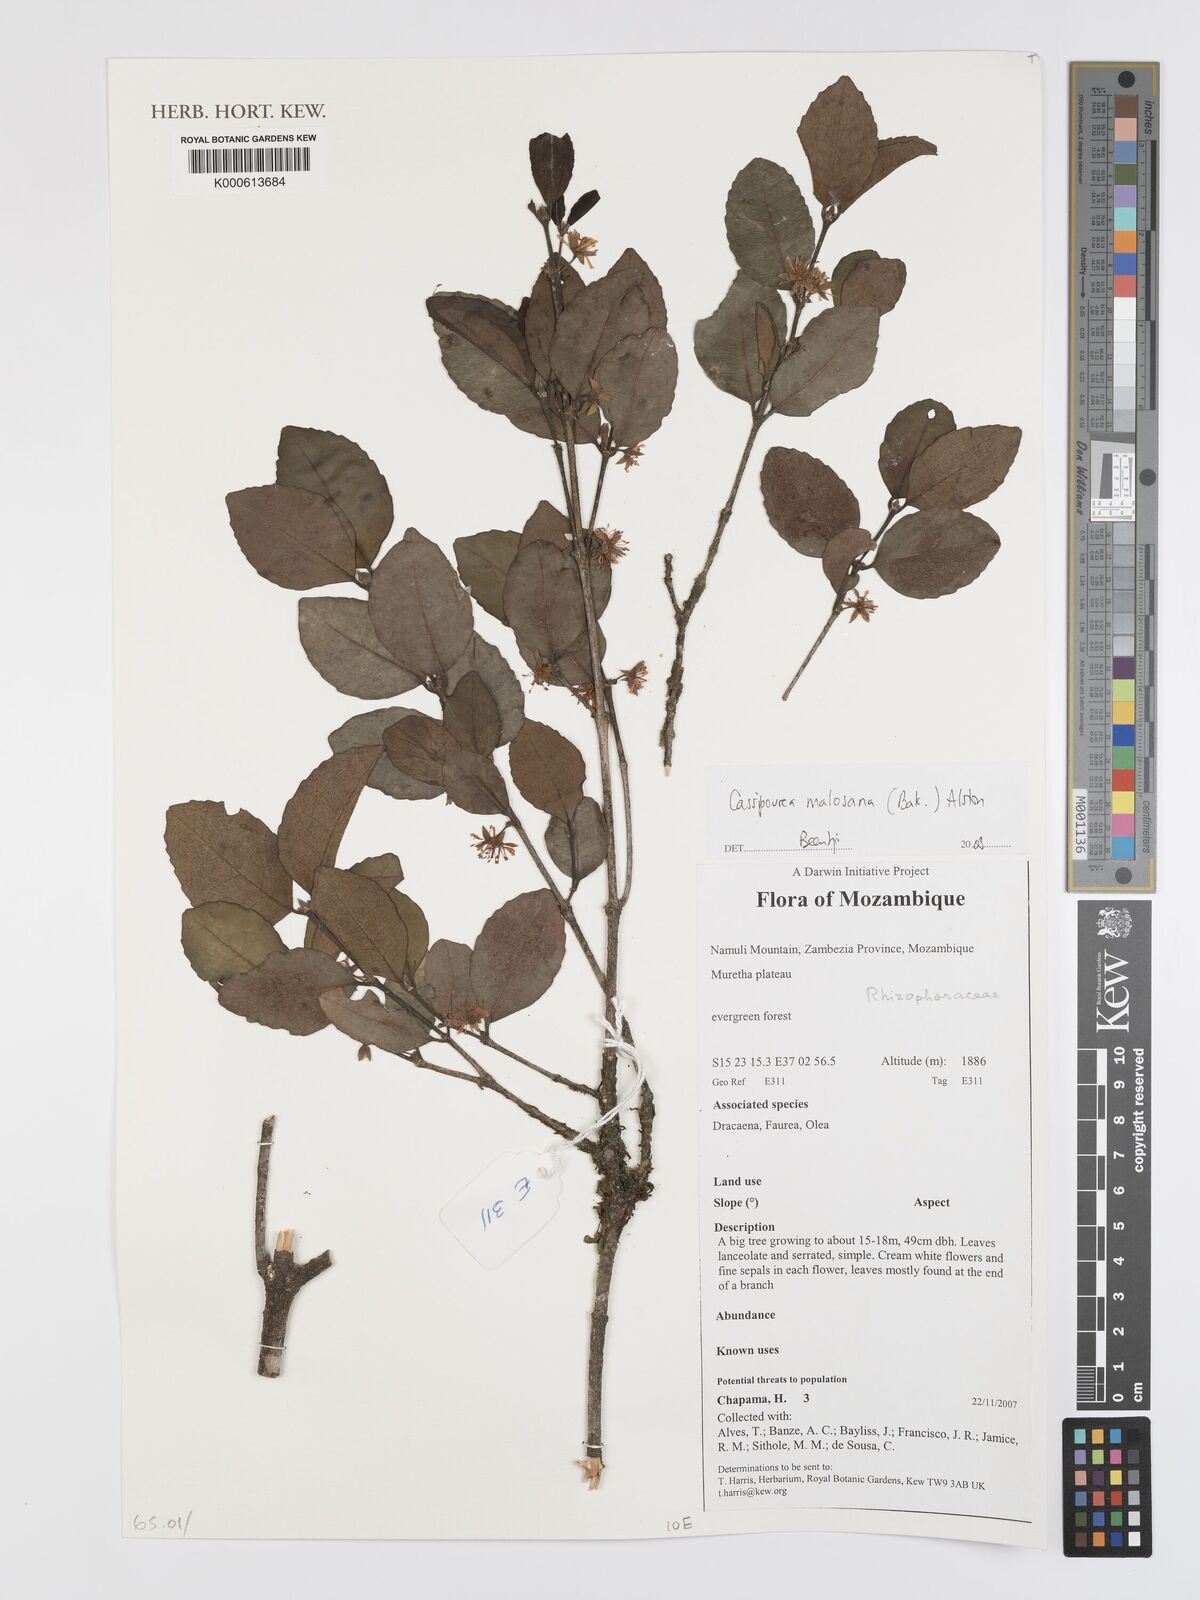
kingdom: Plantae
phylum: Tracheophyta
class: Magnoliopsida
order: Malpighiales
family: Rhizophoraceae
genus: Cassipourea
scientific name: Cassipourea malosana
